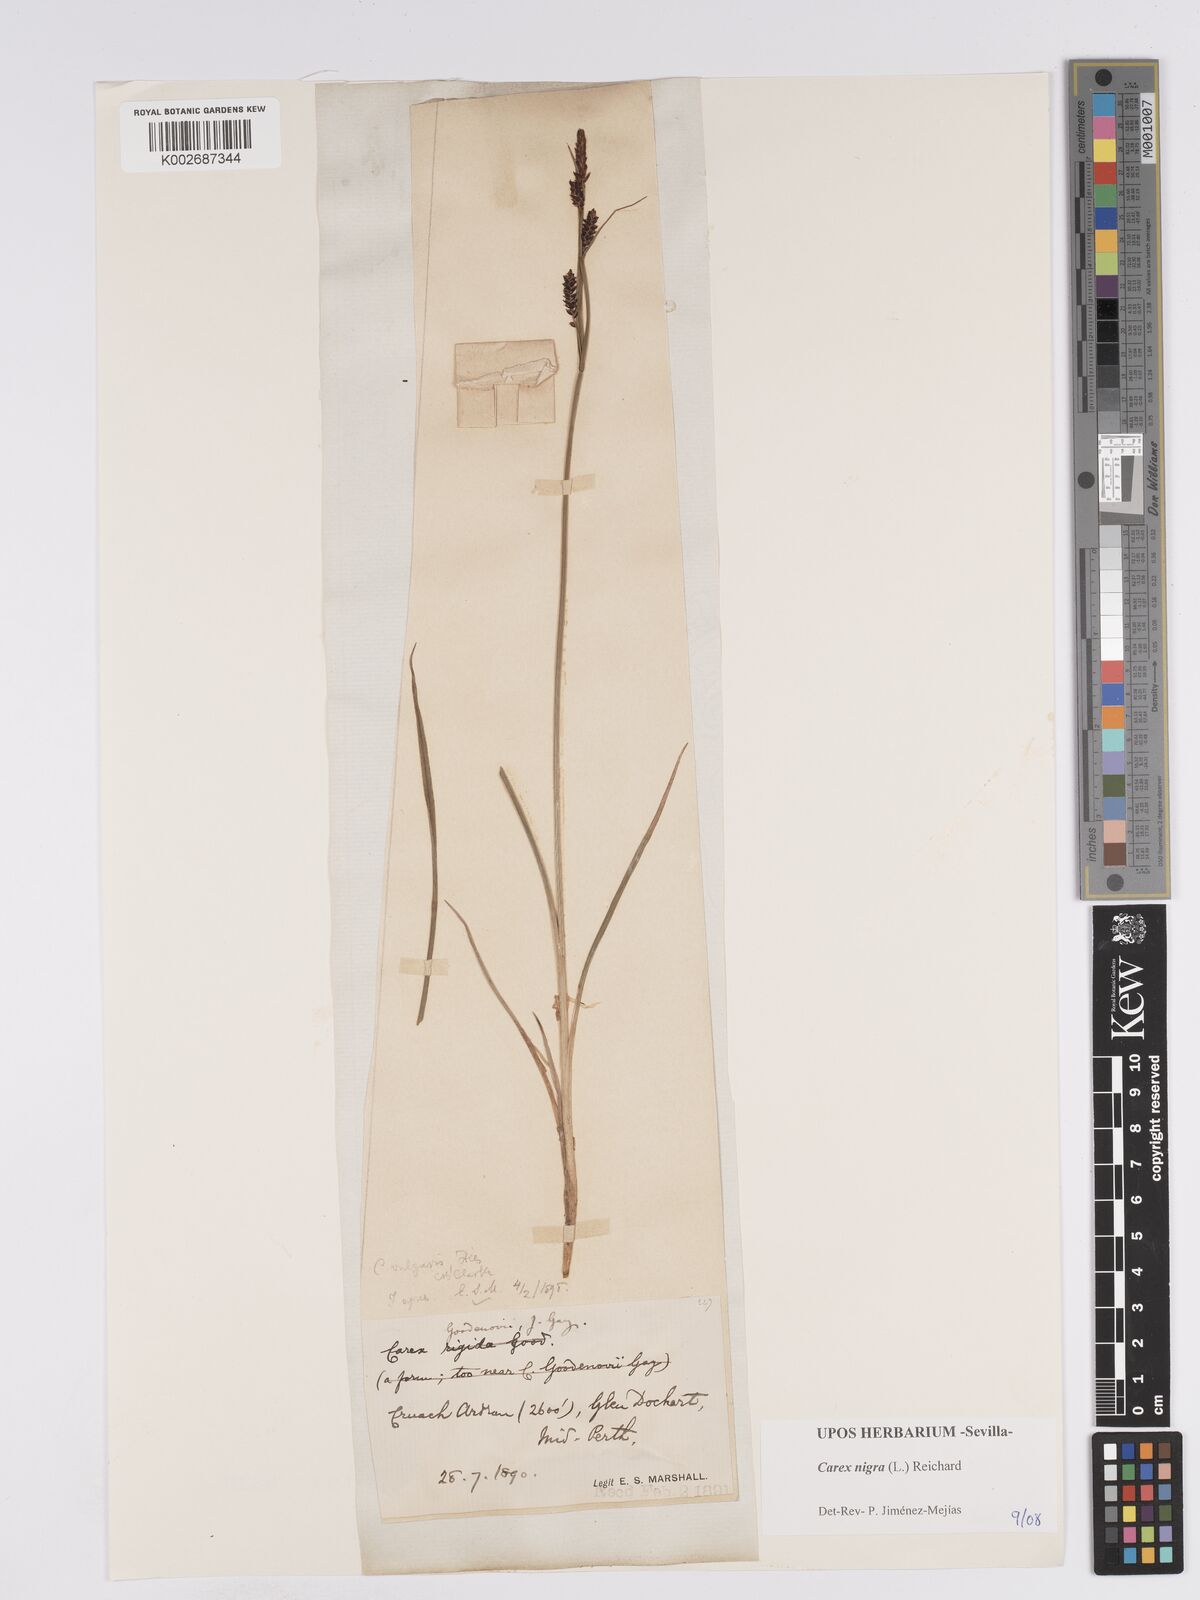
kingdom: Plantae
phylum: Tracheophyta
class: Liliopsida
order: Poales
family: Cyperaceae
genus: Carex
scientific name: Carex nigra
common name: Common sedge
